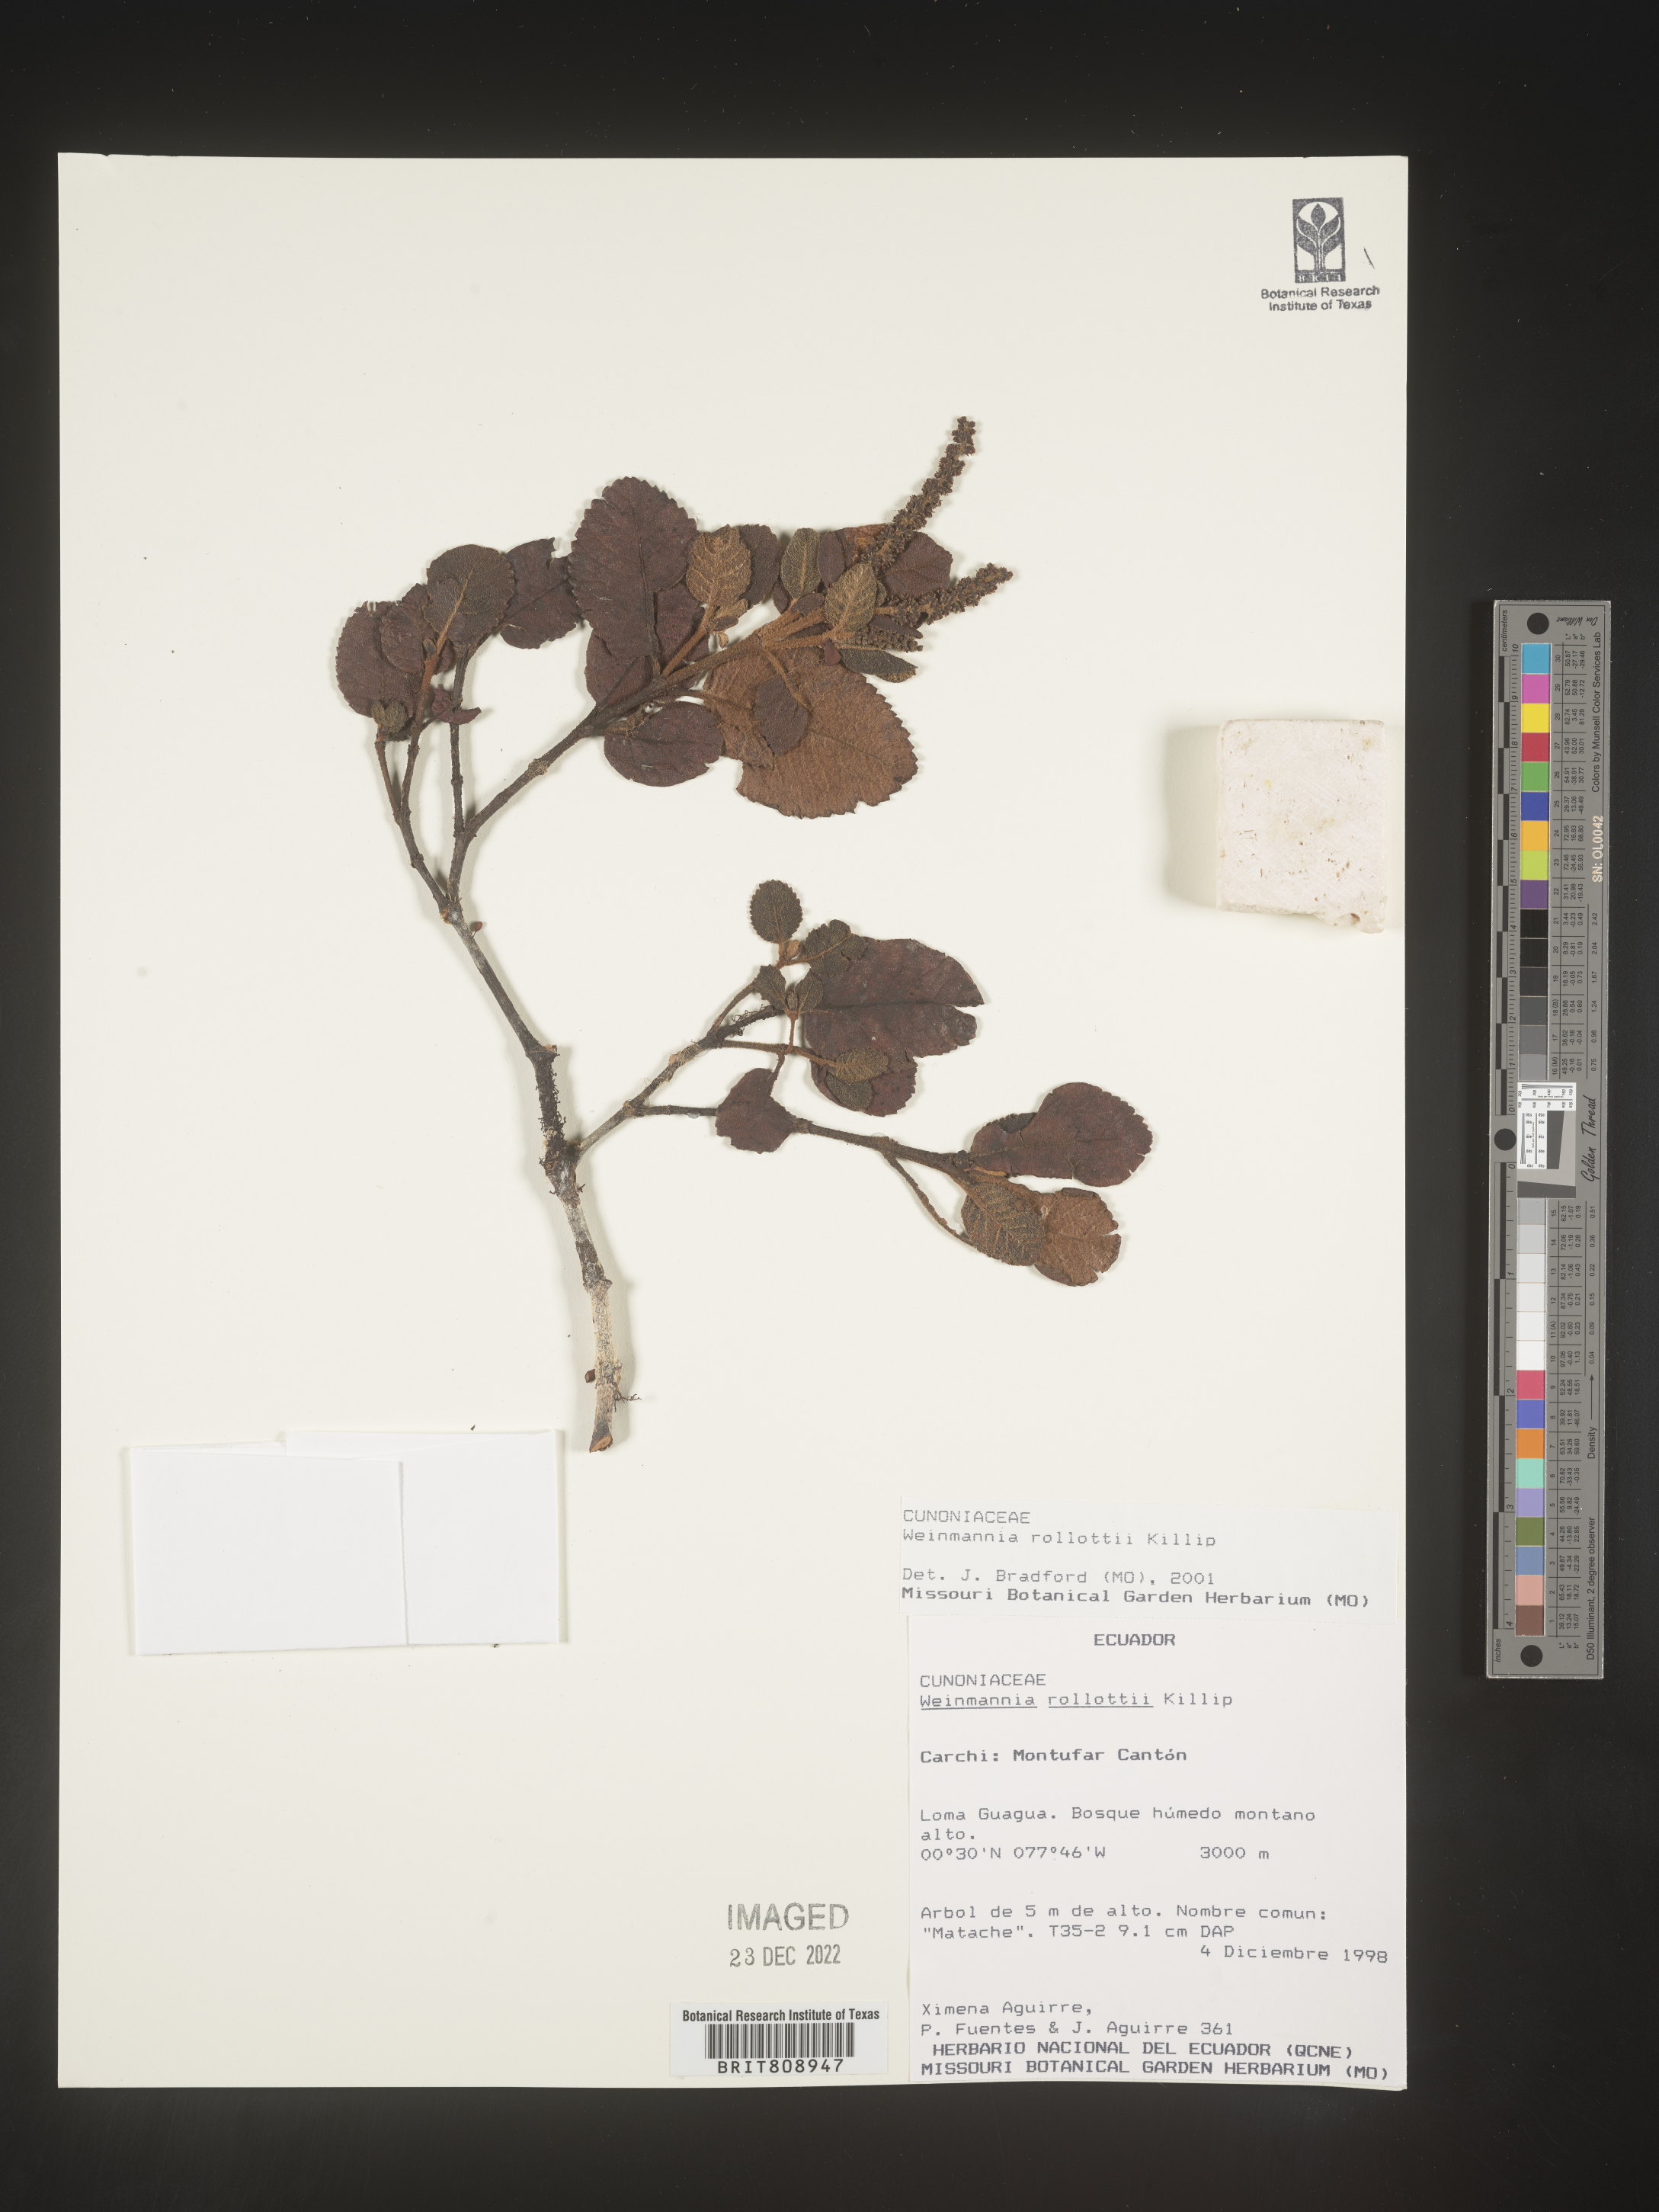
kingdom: Plantae
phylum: Tracheophyta
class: Magnoliopsida
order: Oxalidales
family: Cunoniaceae
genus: Weinmannia
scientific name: Weinmannia
